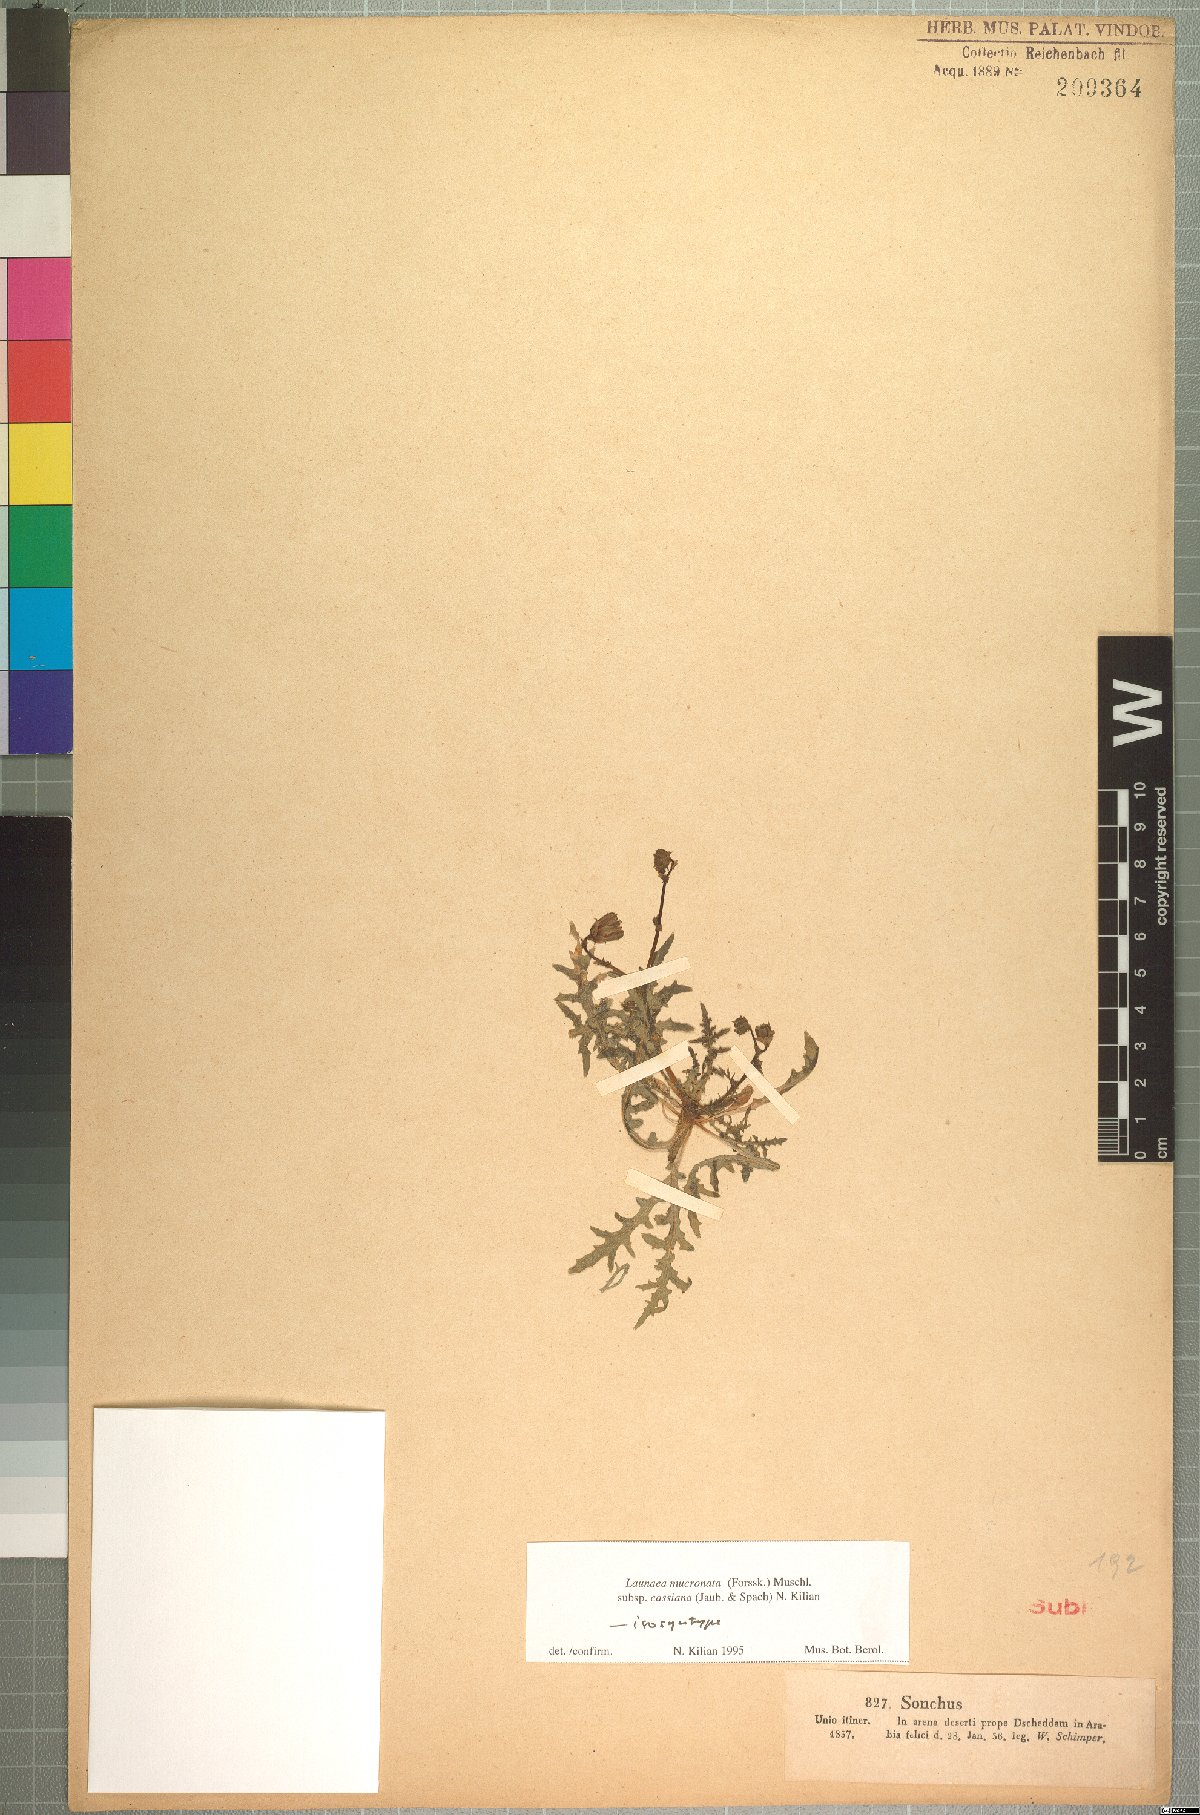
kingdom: Plantae
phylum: Tracheophyta
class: Magnoliopsida
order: Asterales
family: Asteraceae
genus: Launaea
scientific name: Launaea mucronata
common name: Mucronate launea
